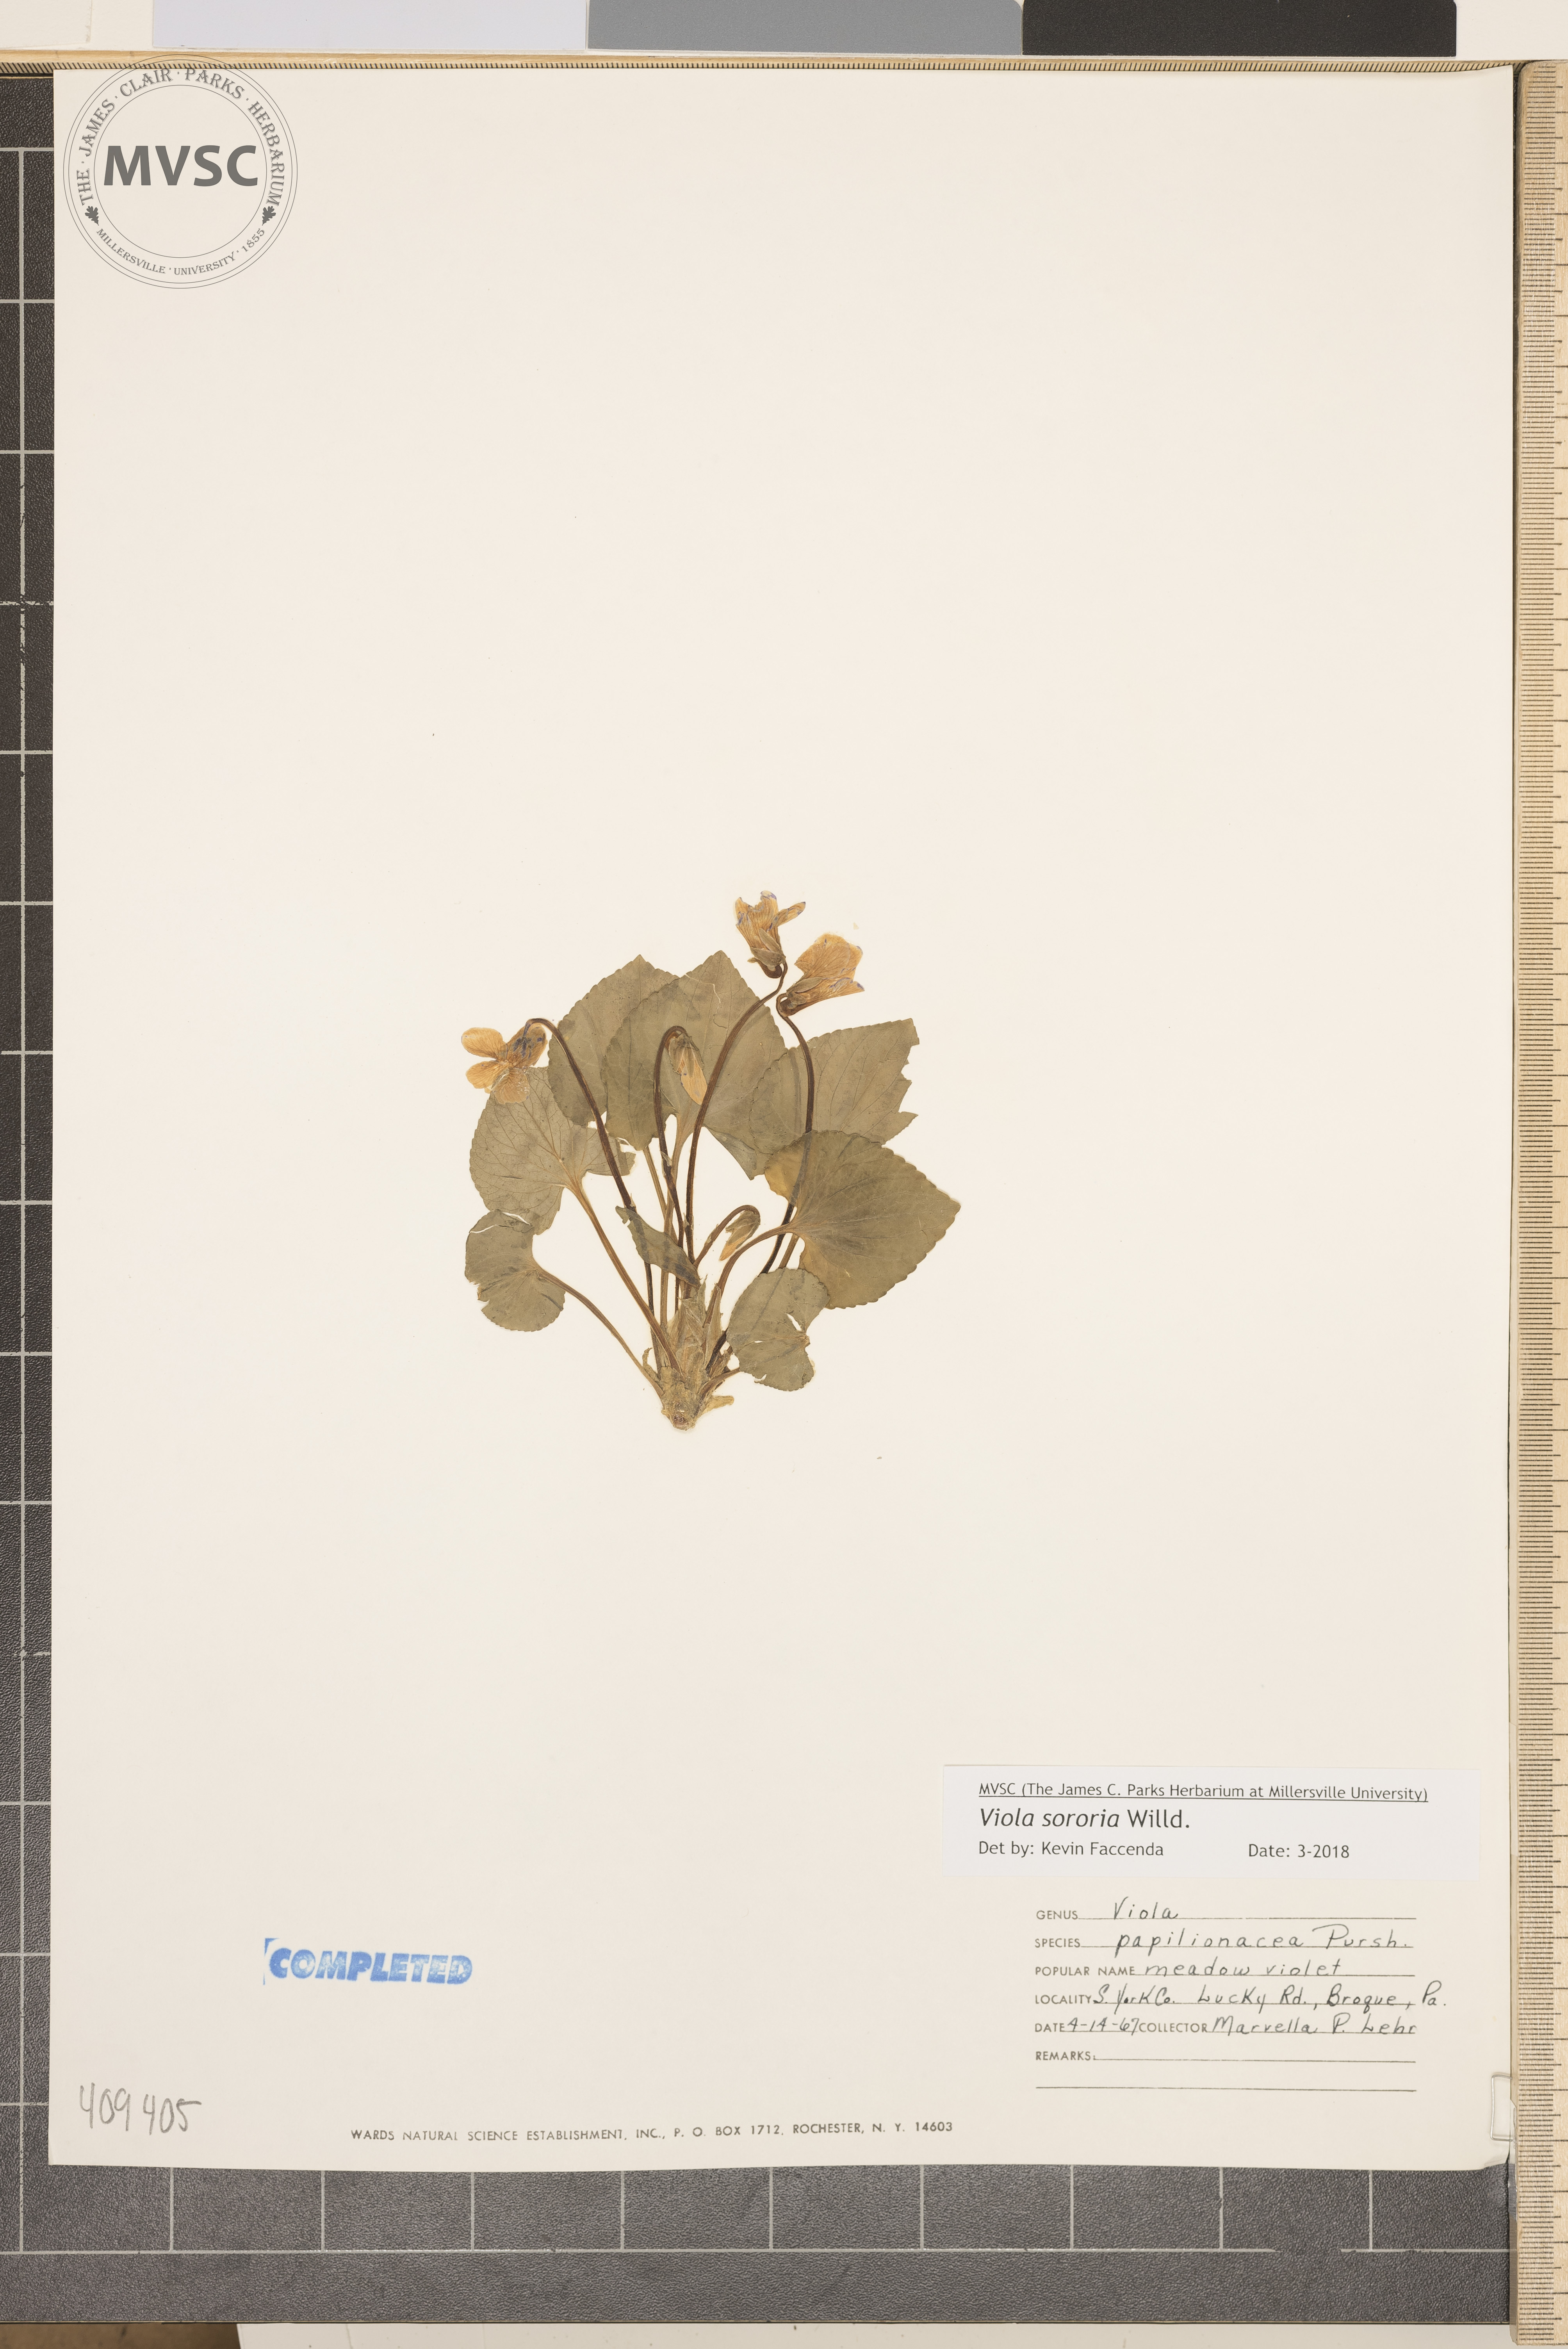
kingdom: Plantae
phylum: Tracheophyta
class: Magnoliopsida
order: Malpighiales
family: Violaceae
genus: Viola
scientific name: Viola sororia
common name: Dooryard violet
